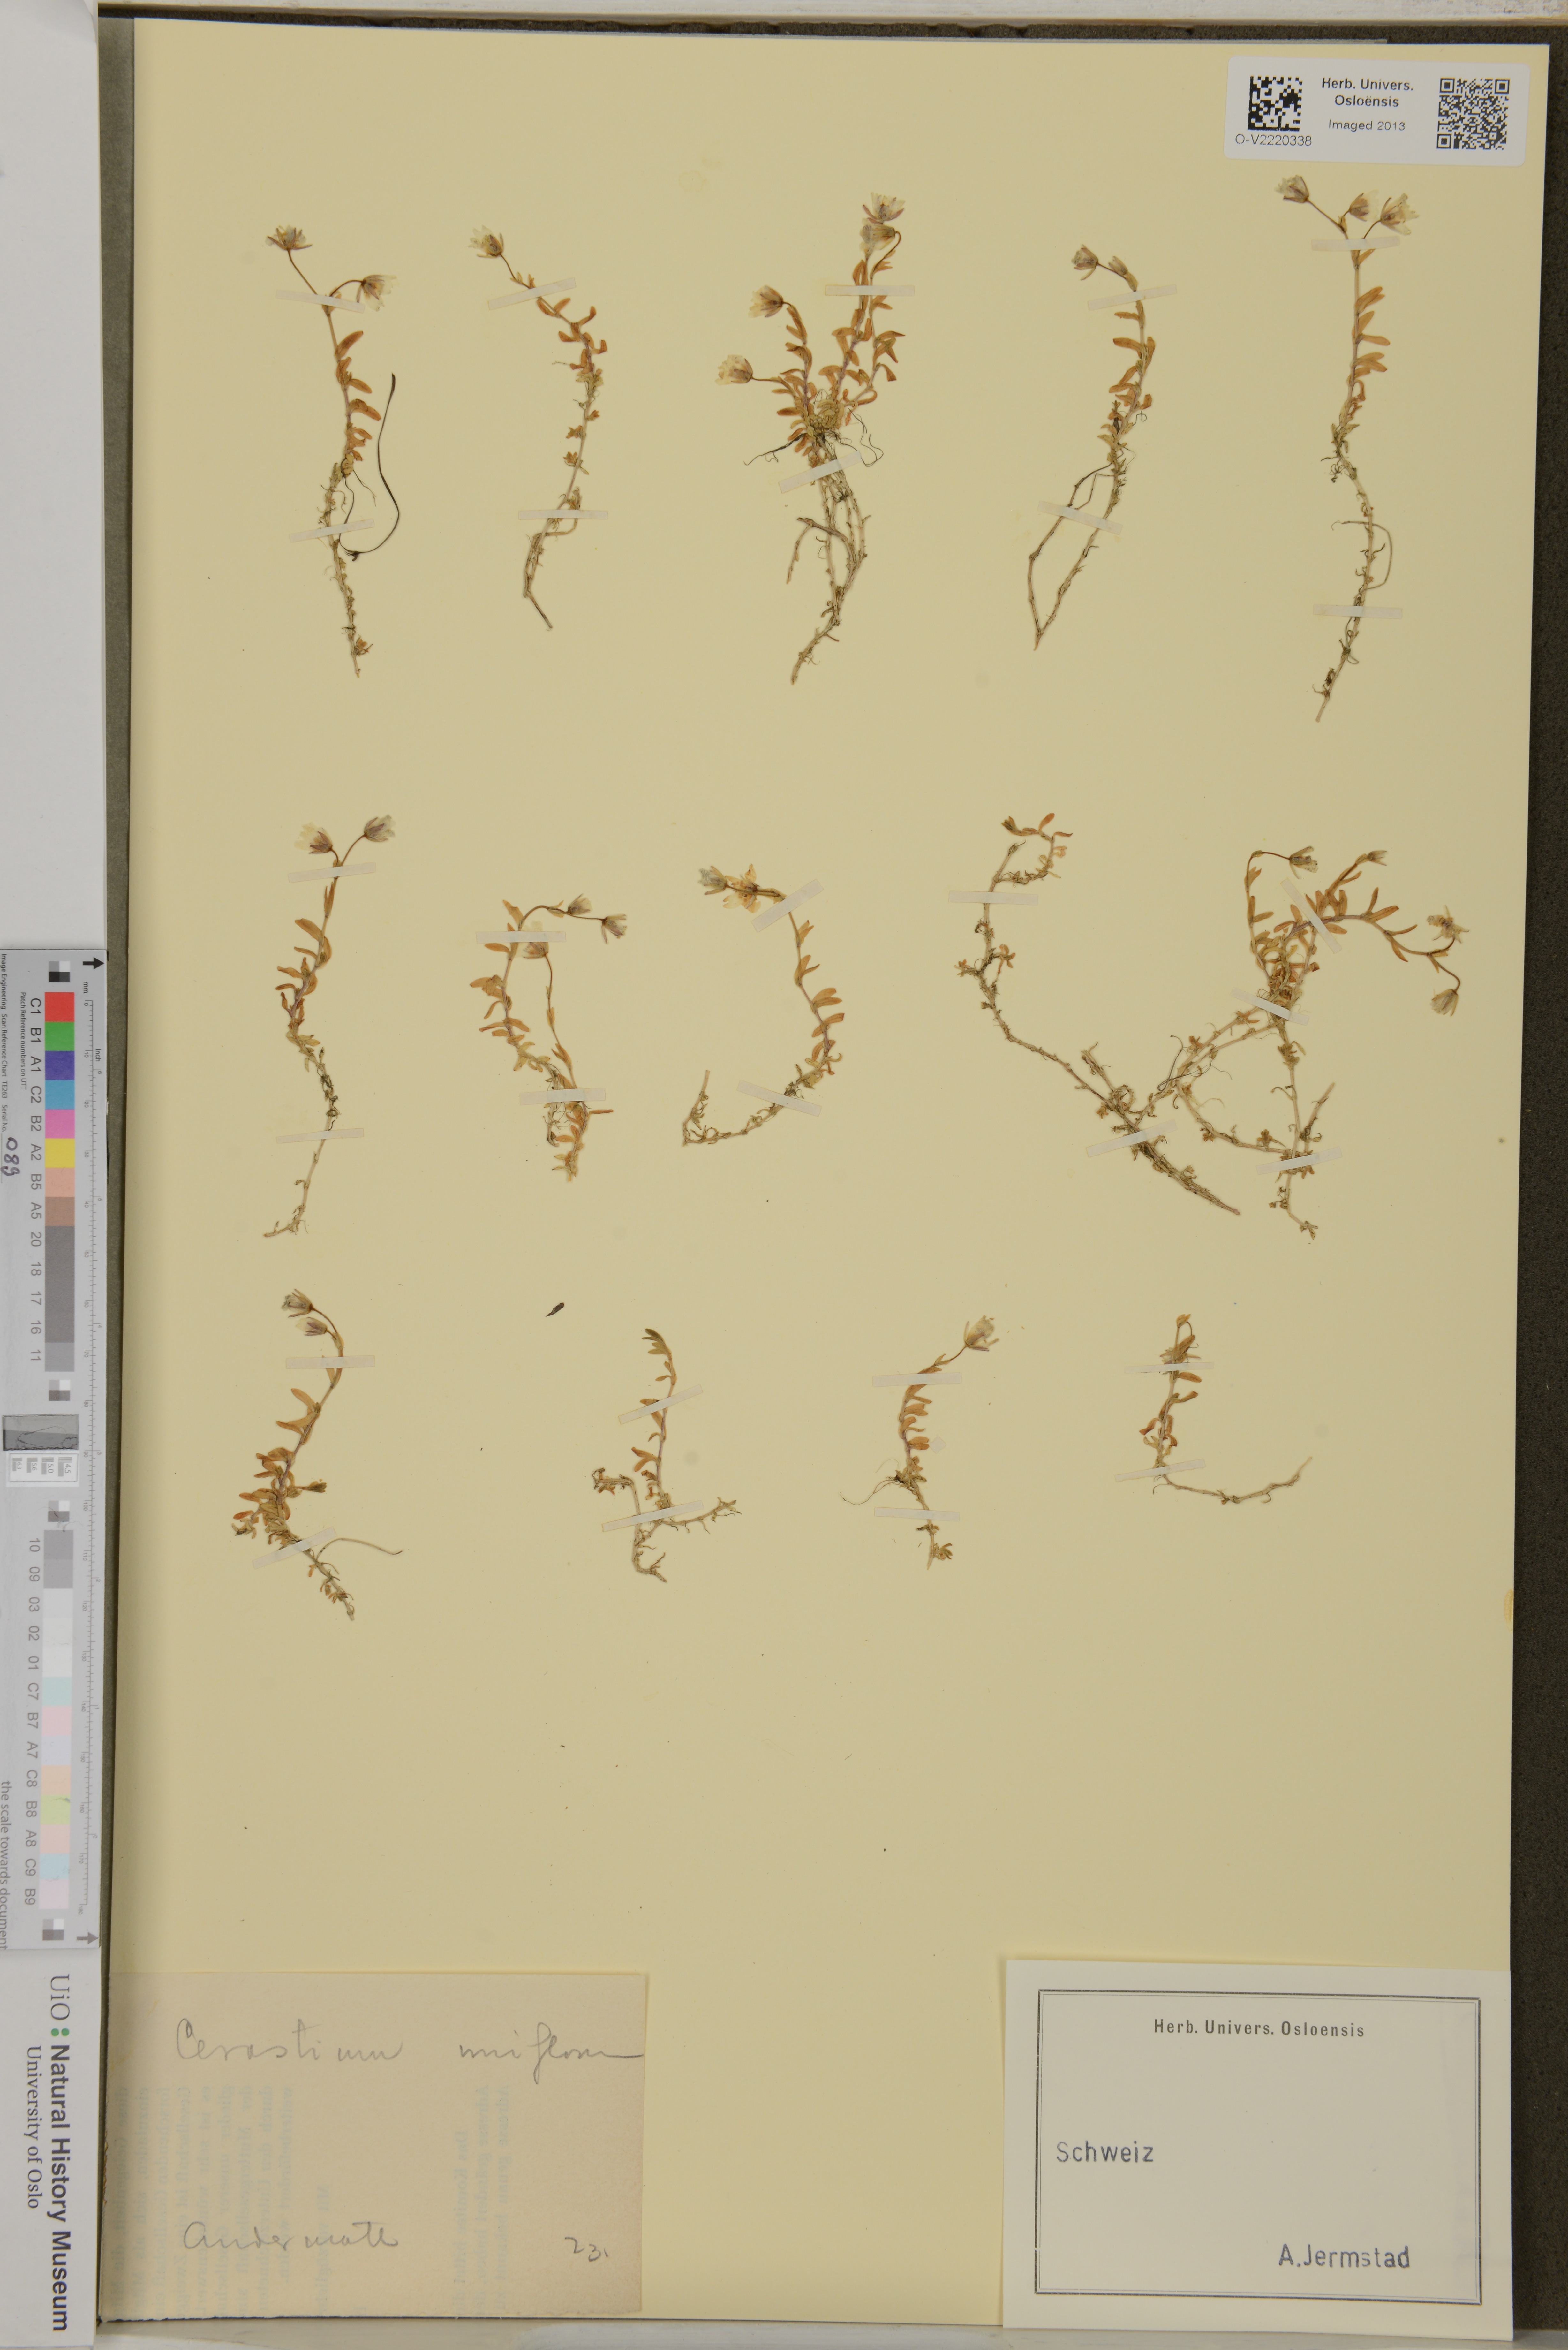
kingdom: Plantae
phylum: Tracheophyta
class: Magnoliopsida
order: Caryophyllales
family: Caryophyllaceae
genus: Cerastium
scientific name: Cerastium uniflorum
